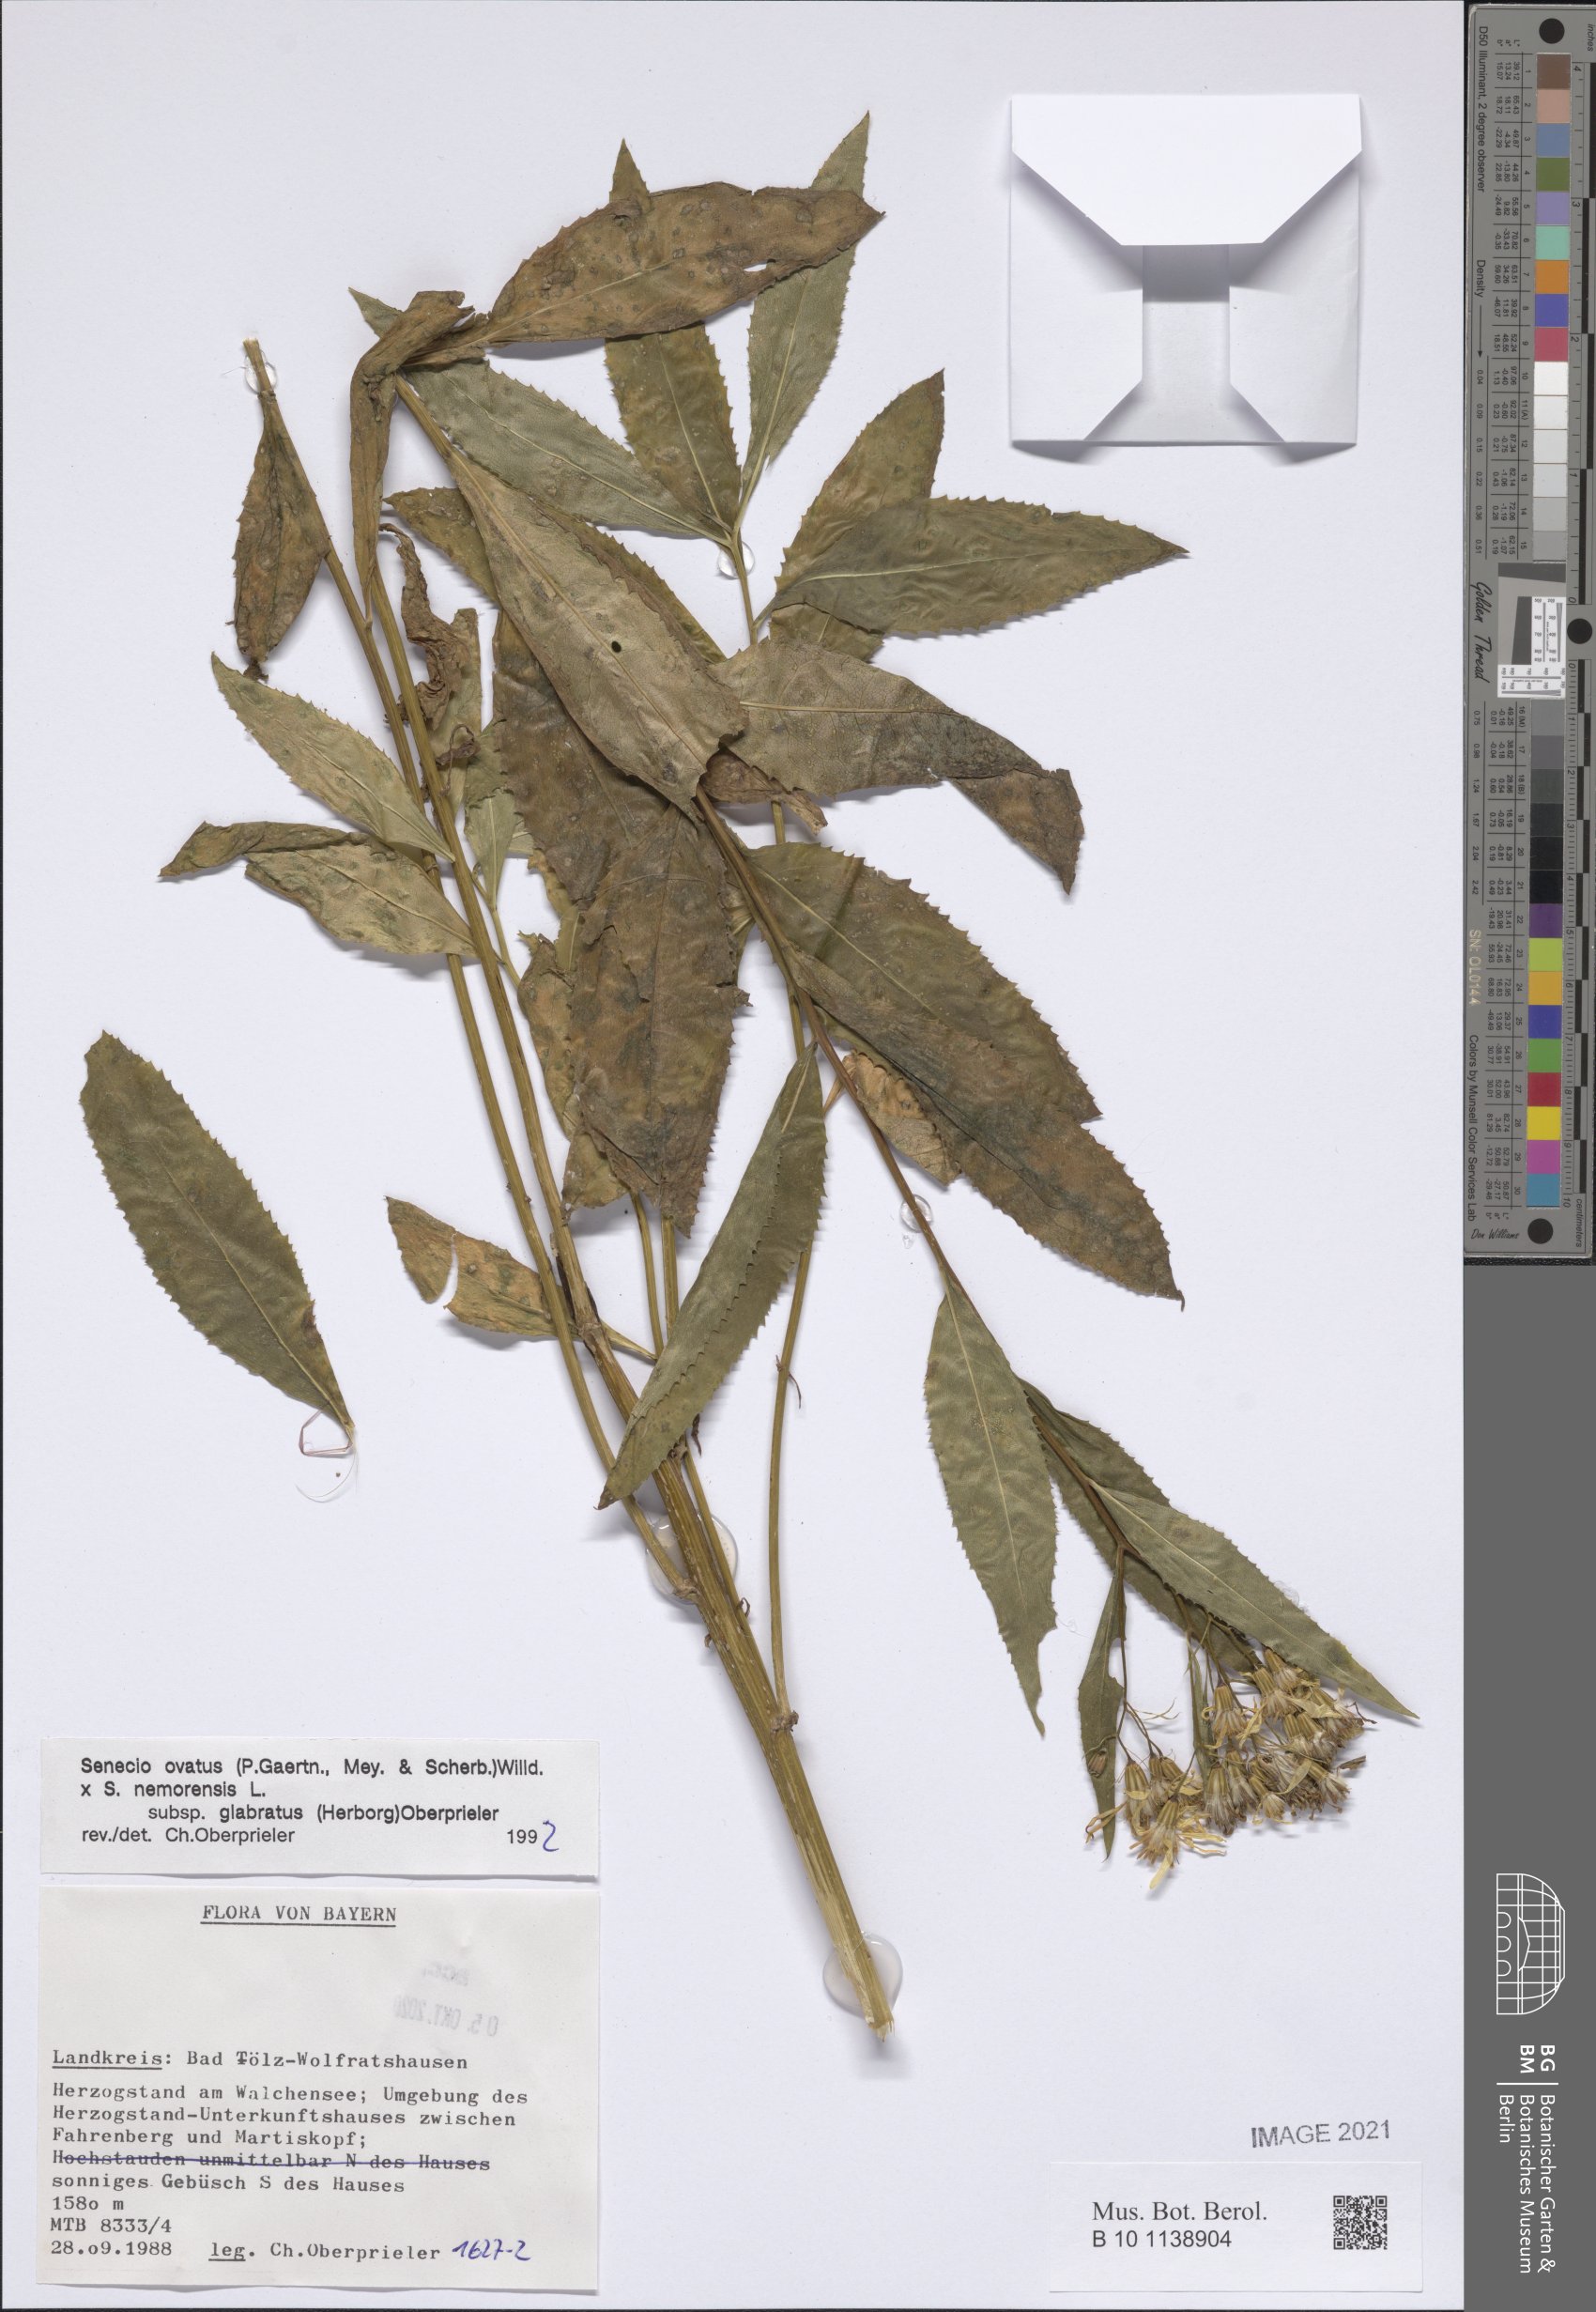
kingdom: Plantae
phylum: Tracheophyta
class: Magnoliopsida
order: Asterales
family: Asteraceae
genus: Senecio
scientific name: Senecio ovatus
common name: Wood ragwort
